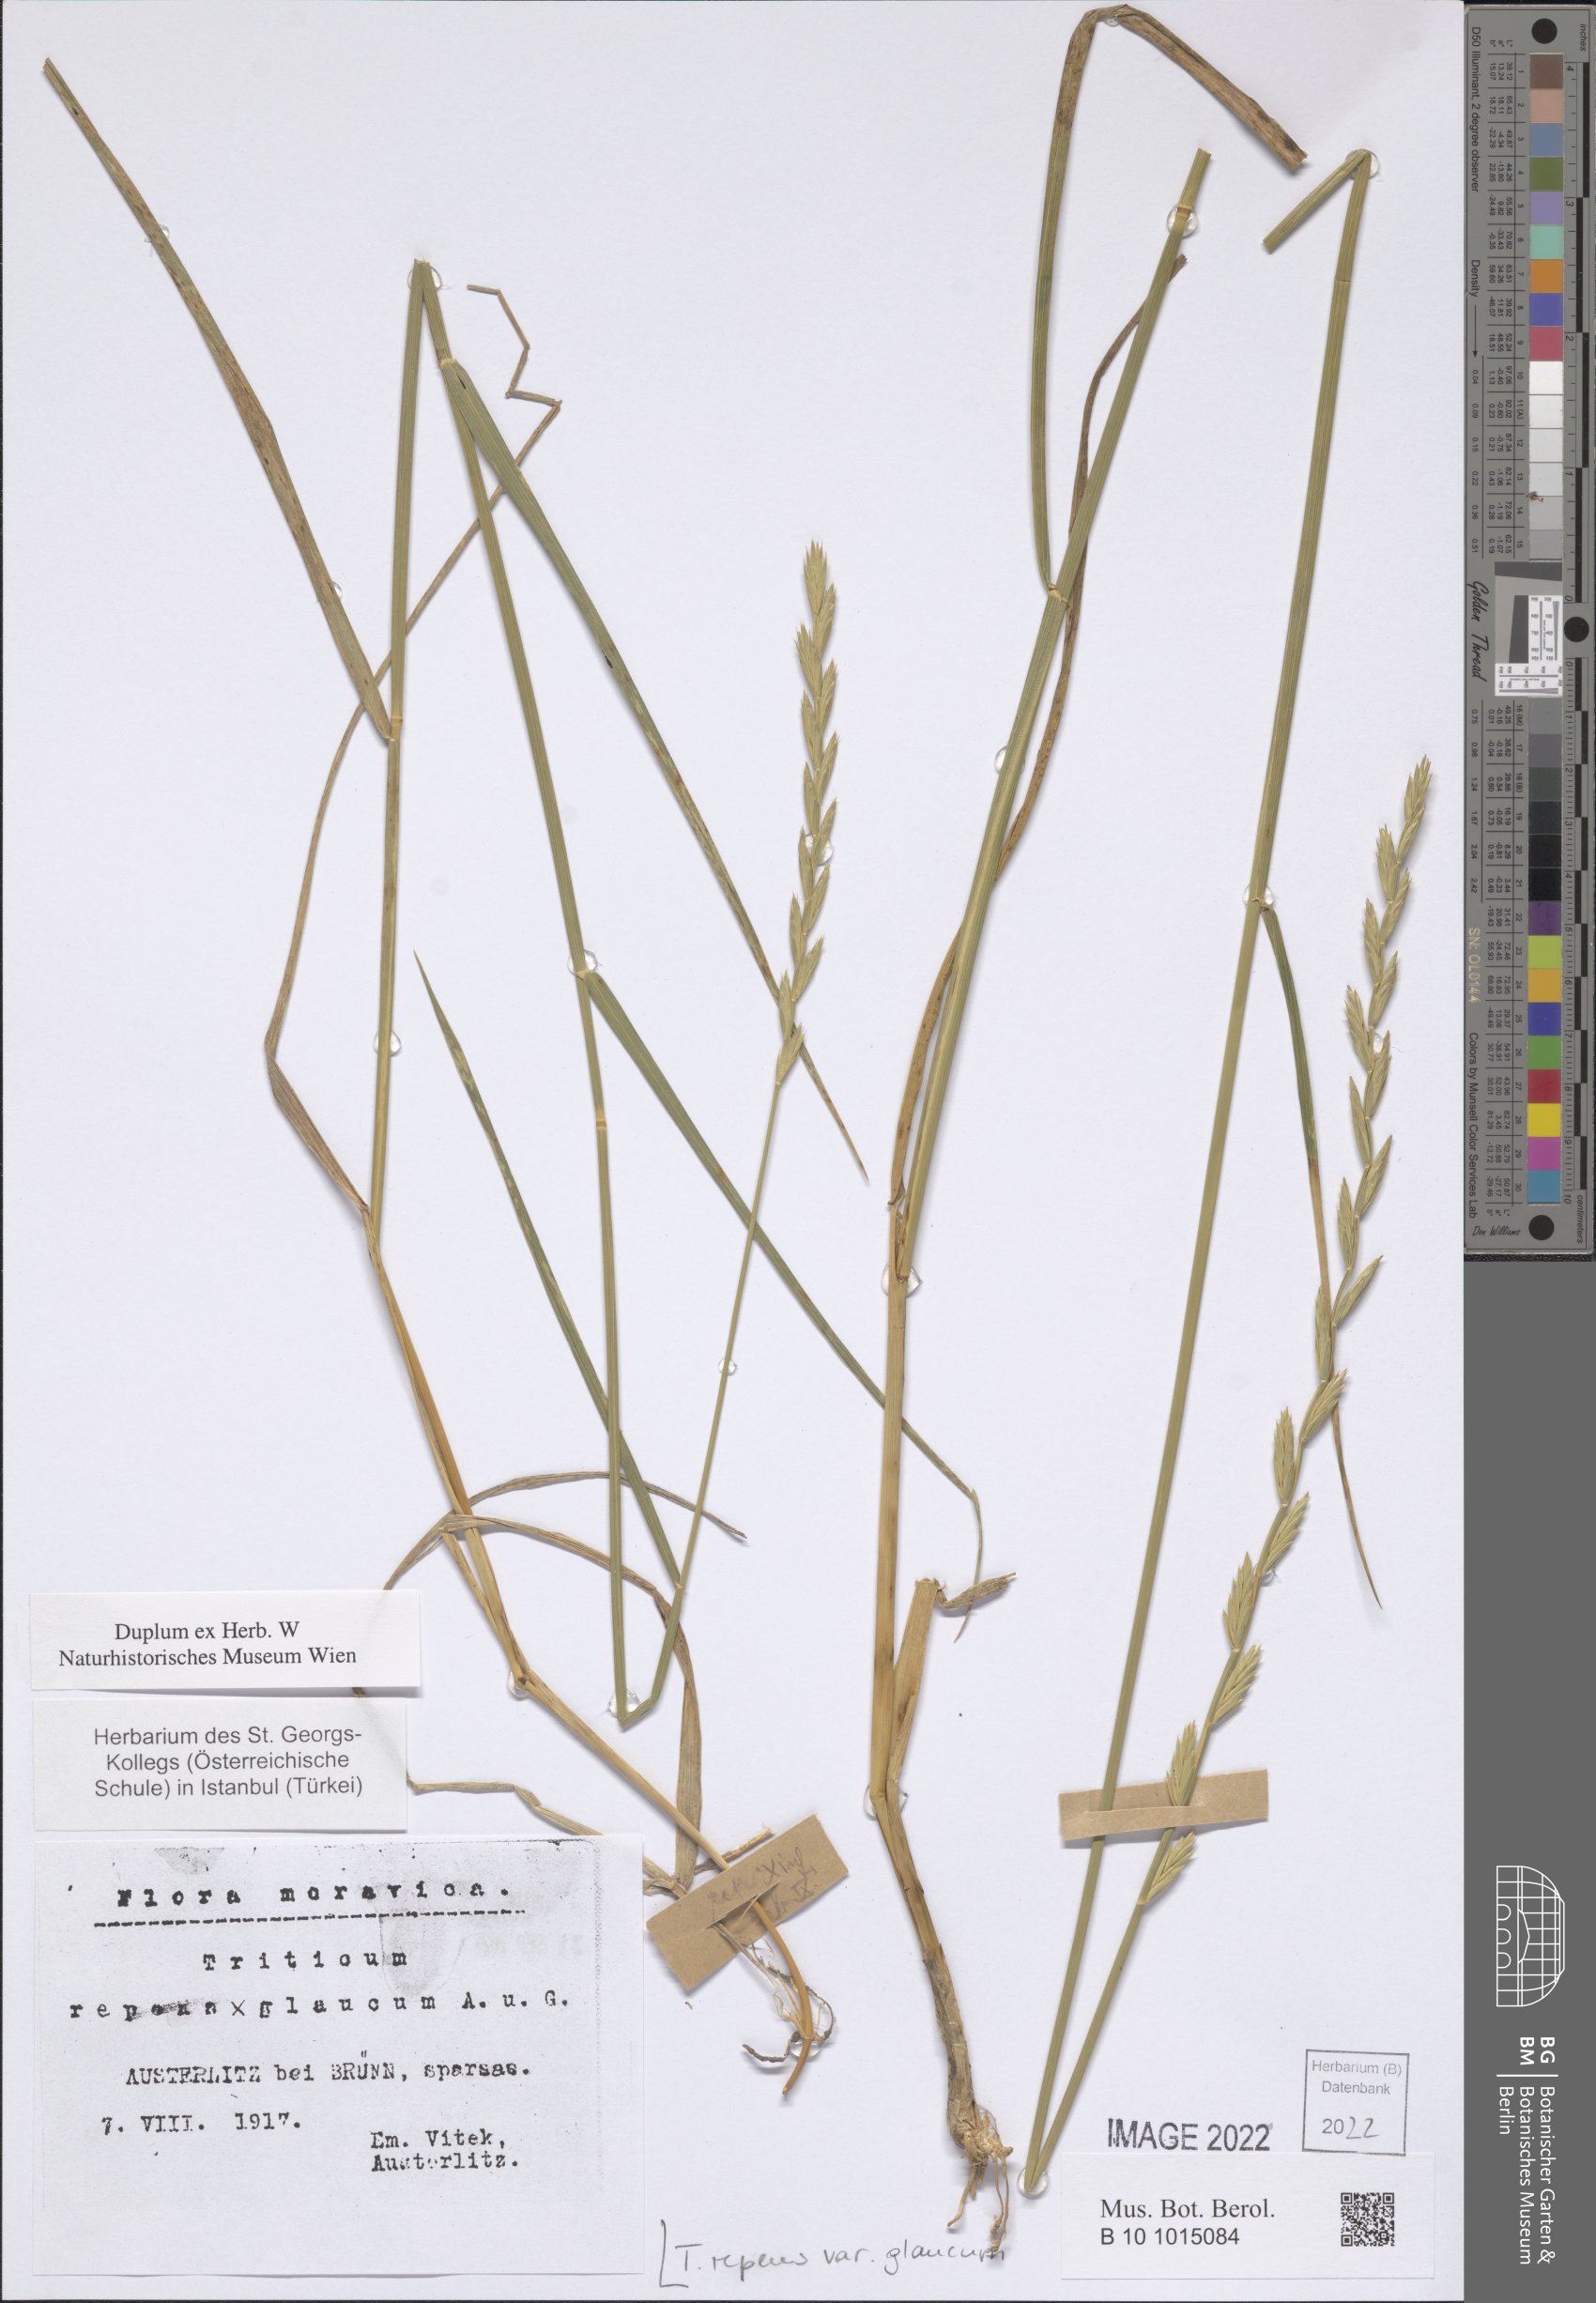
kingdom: Plantae
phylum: Tracheophyta
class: Liliopsida
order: Poales
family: Poaceae
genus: Elymus
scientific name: Elymus repens
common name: Quackgrass
